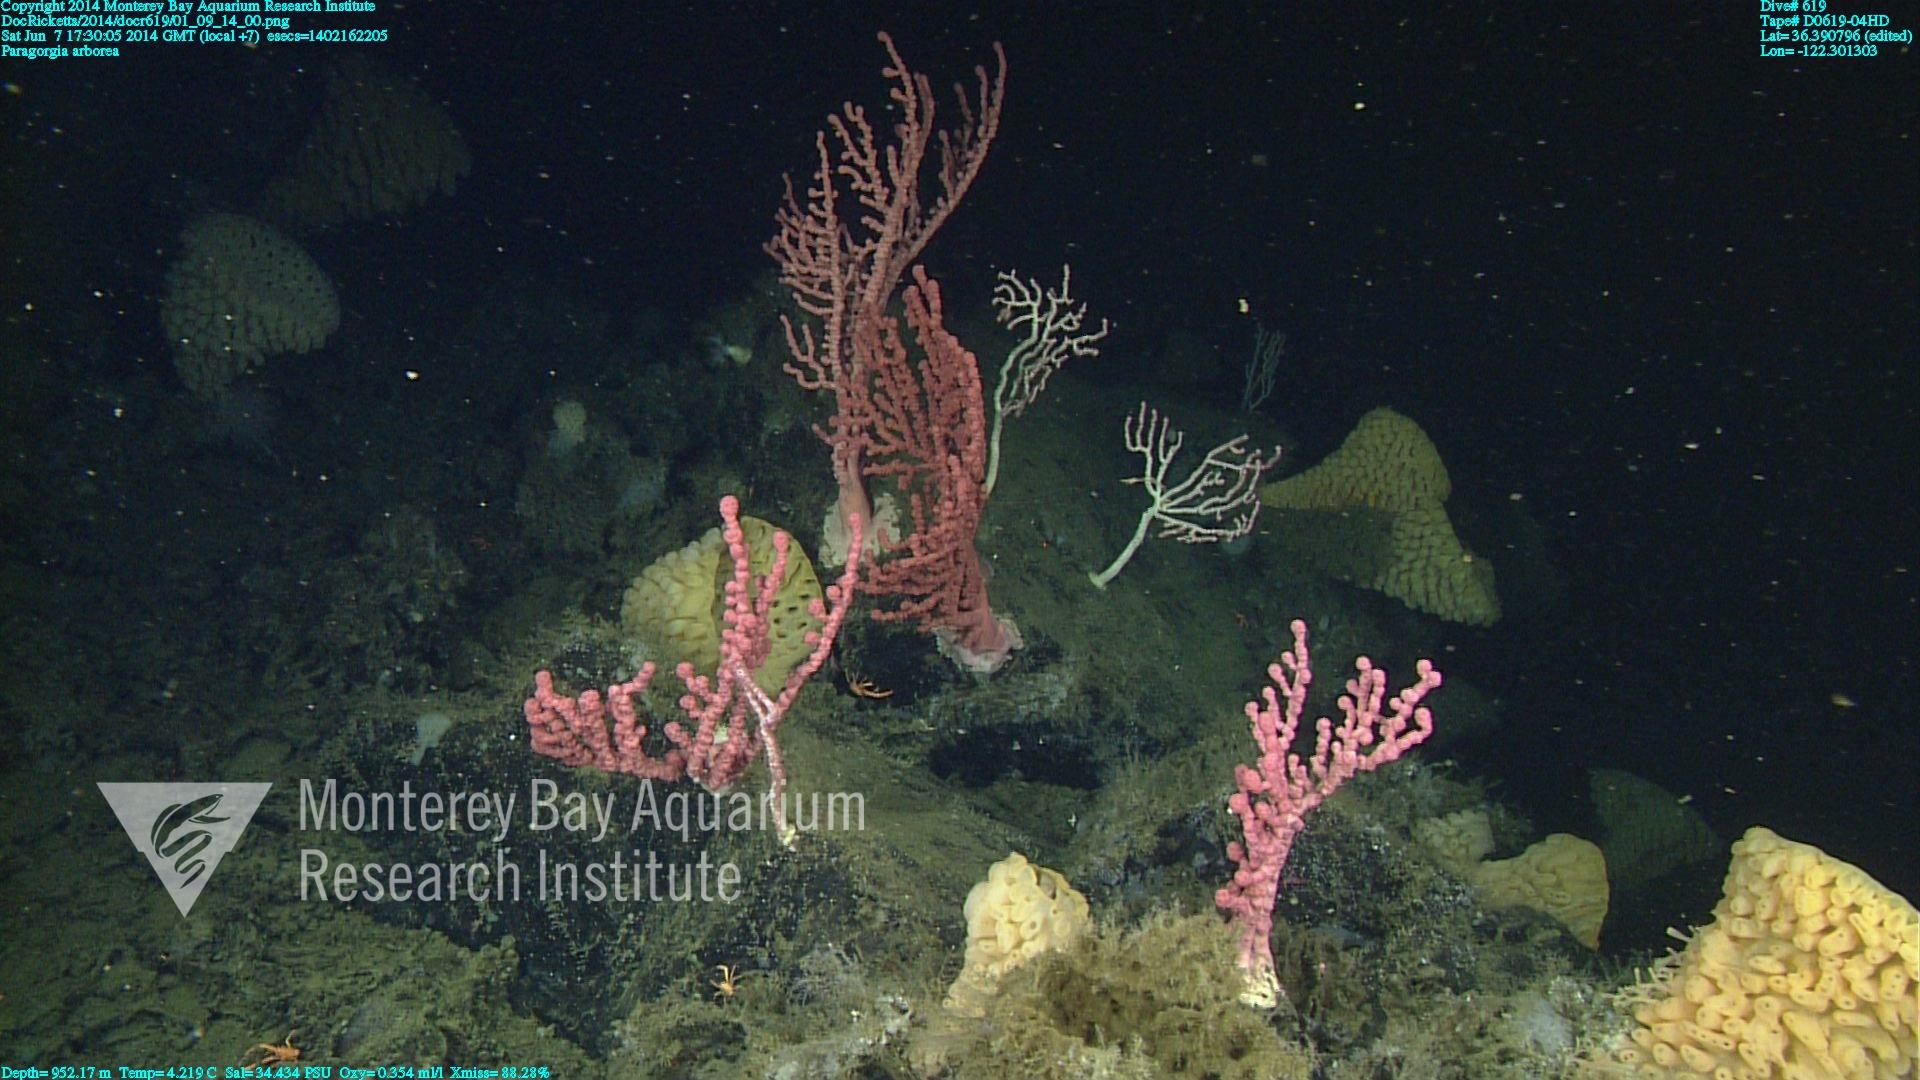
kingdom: Animalia
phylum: Cnidaria
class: Anthozoa
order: Scleralcyonacea
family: Coralliidae
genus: Paragorgia
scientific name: Paragorgia arborea
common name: Bubble gum coral
